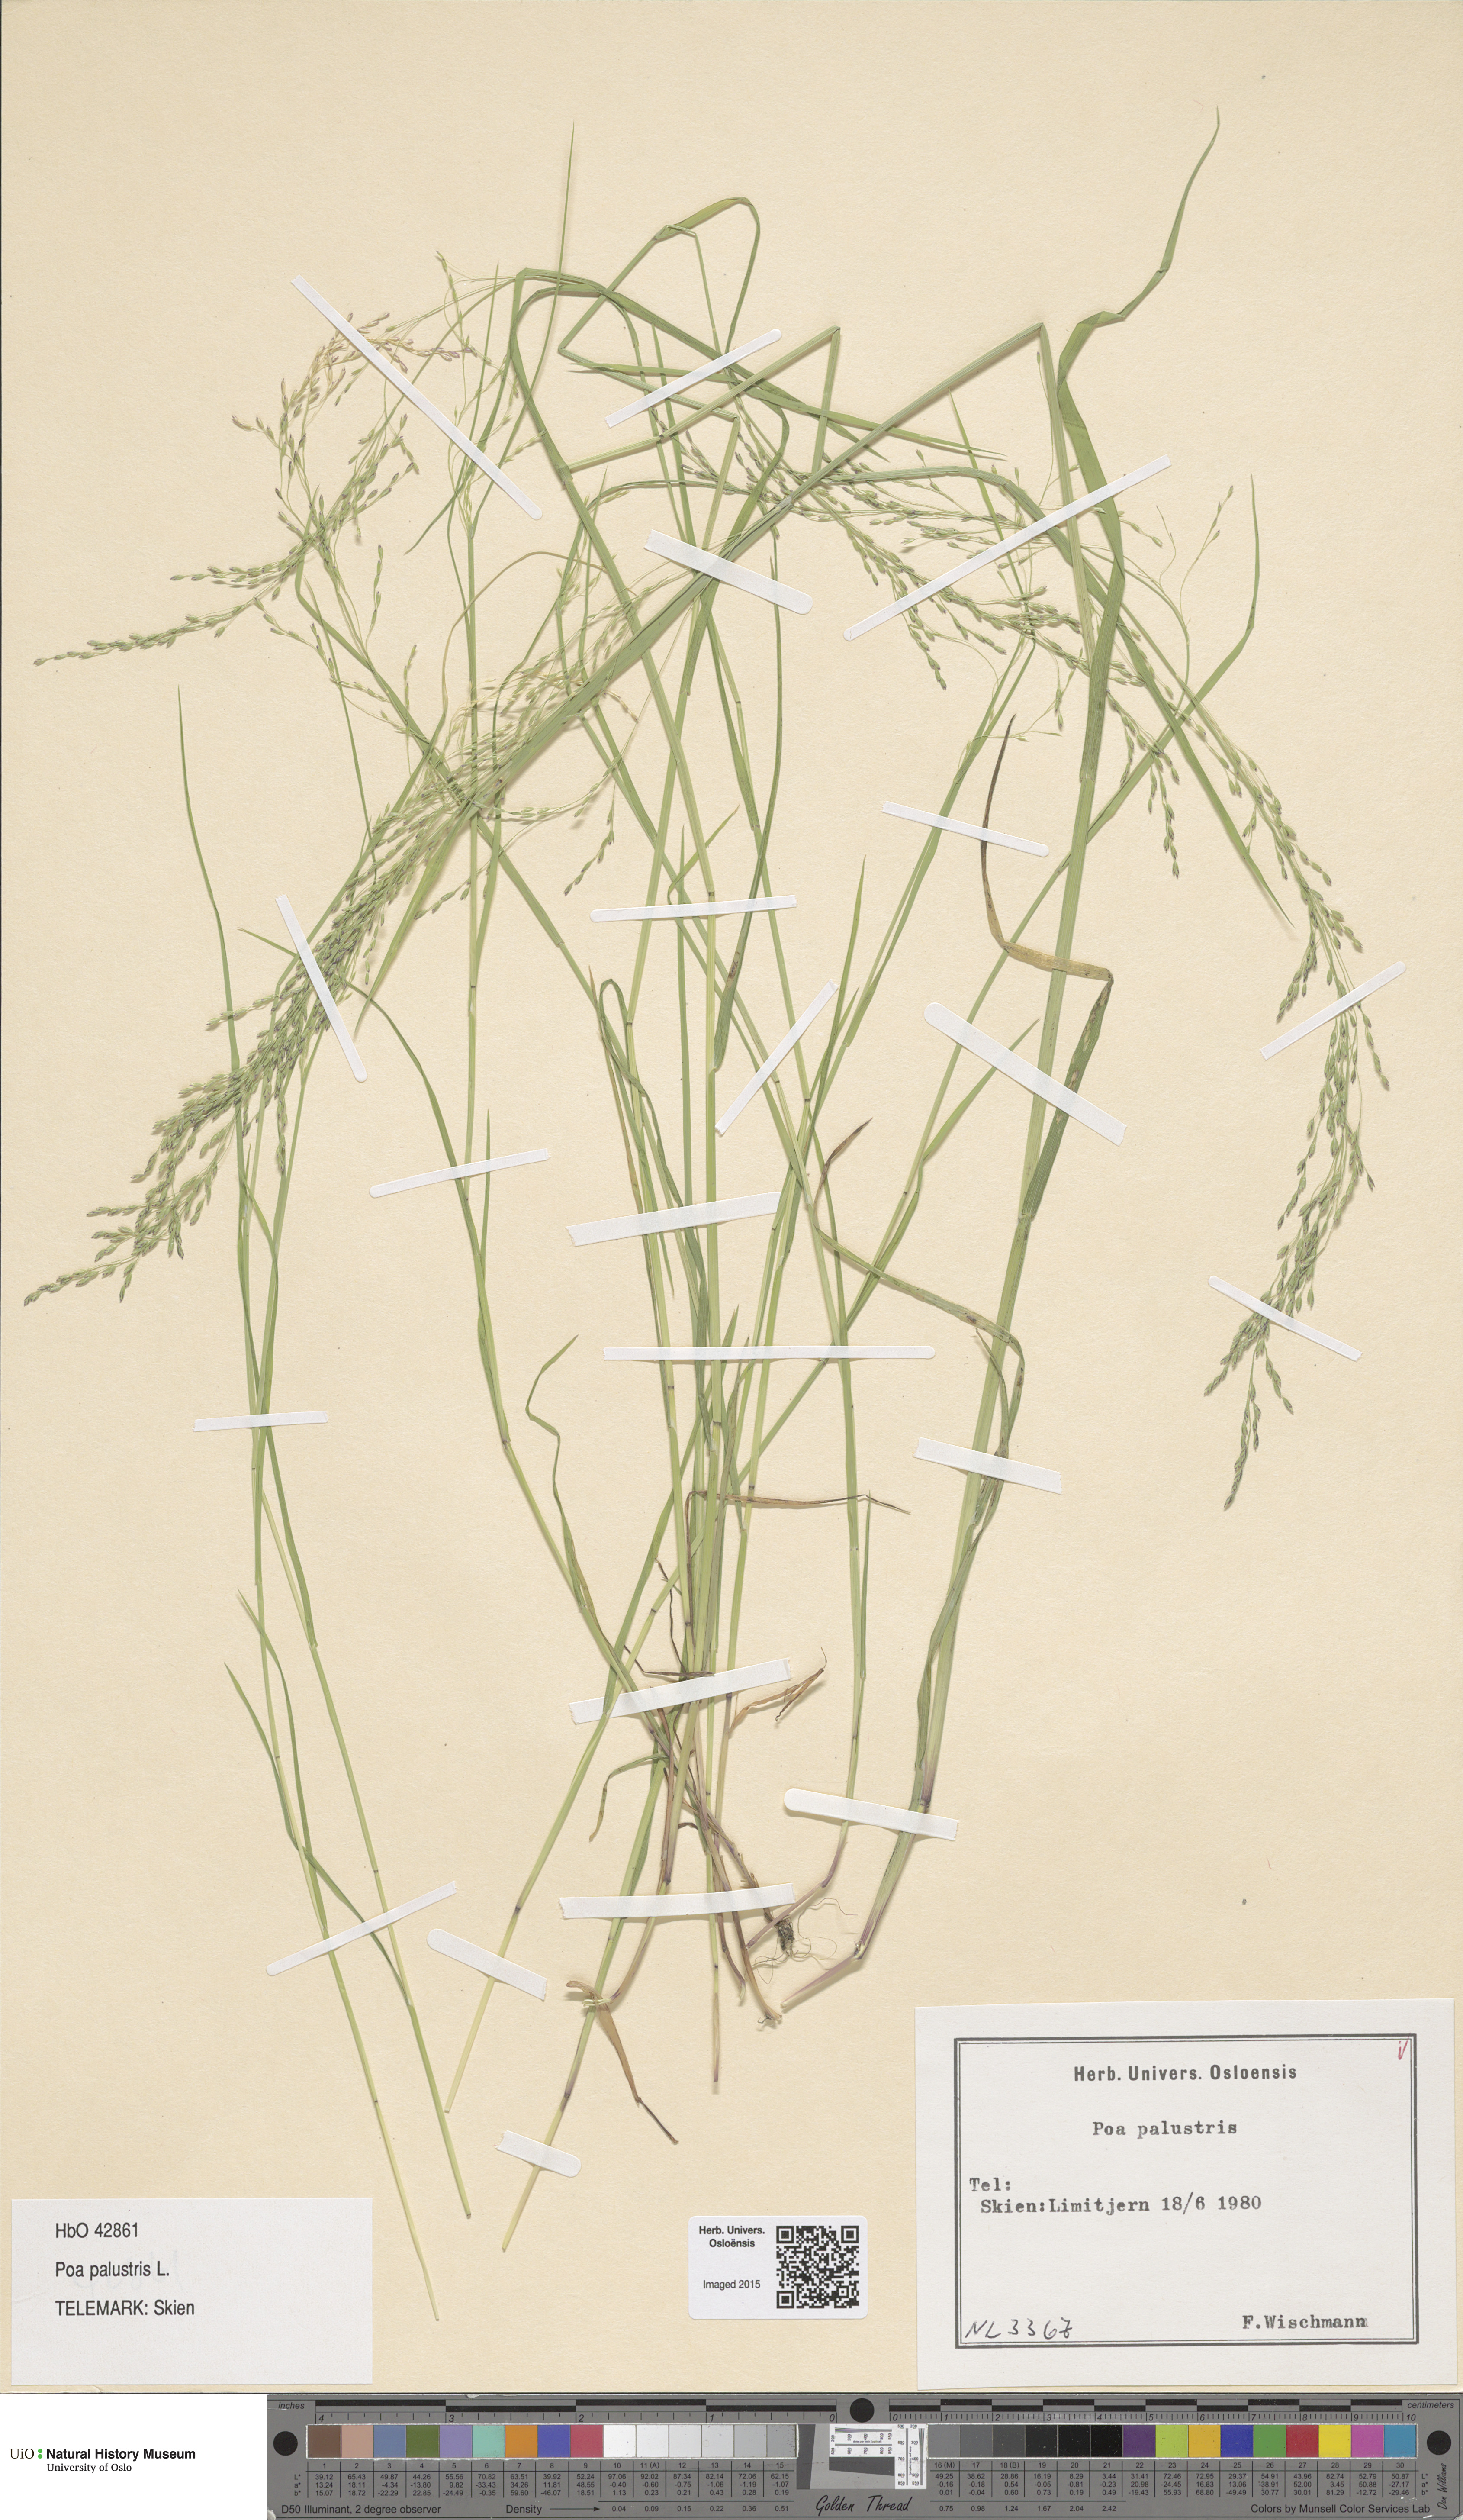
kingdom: Plantae
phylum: Tracheophyta
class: Liliopsida
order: Poales
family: Poaceae
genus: Poa
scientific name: Poa palustris
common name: Swamp meadow-grass
